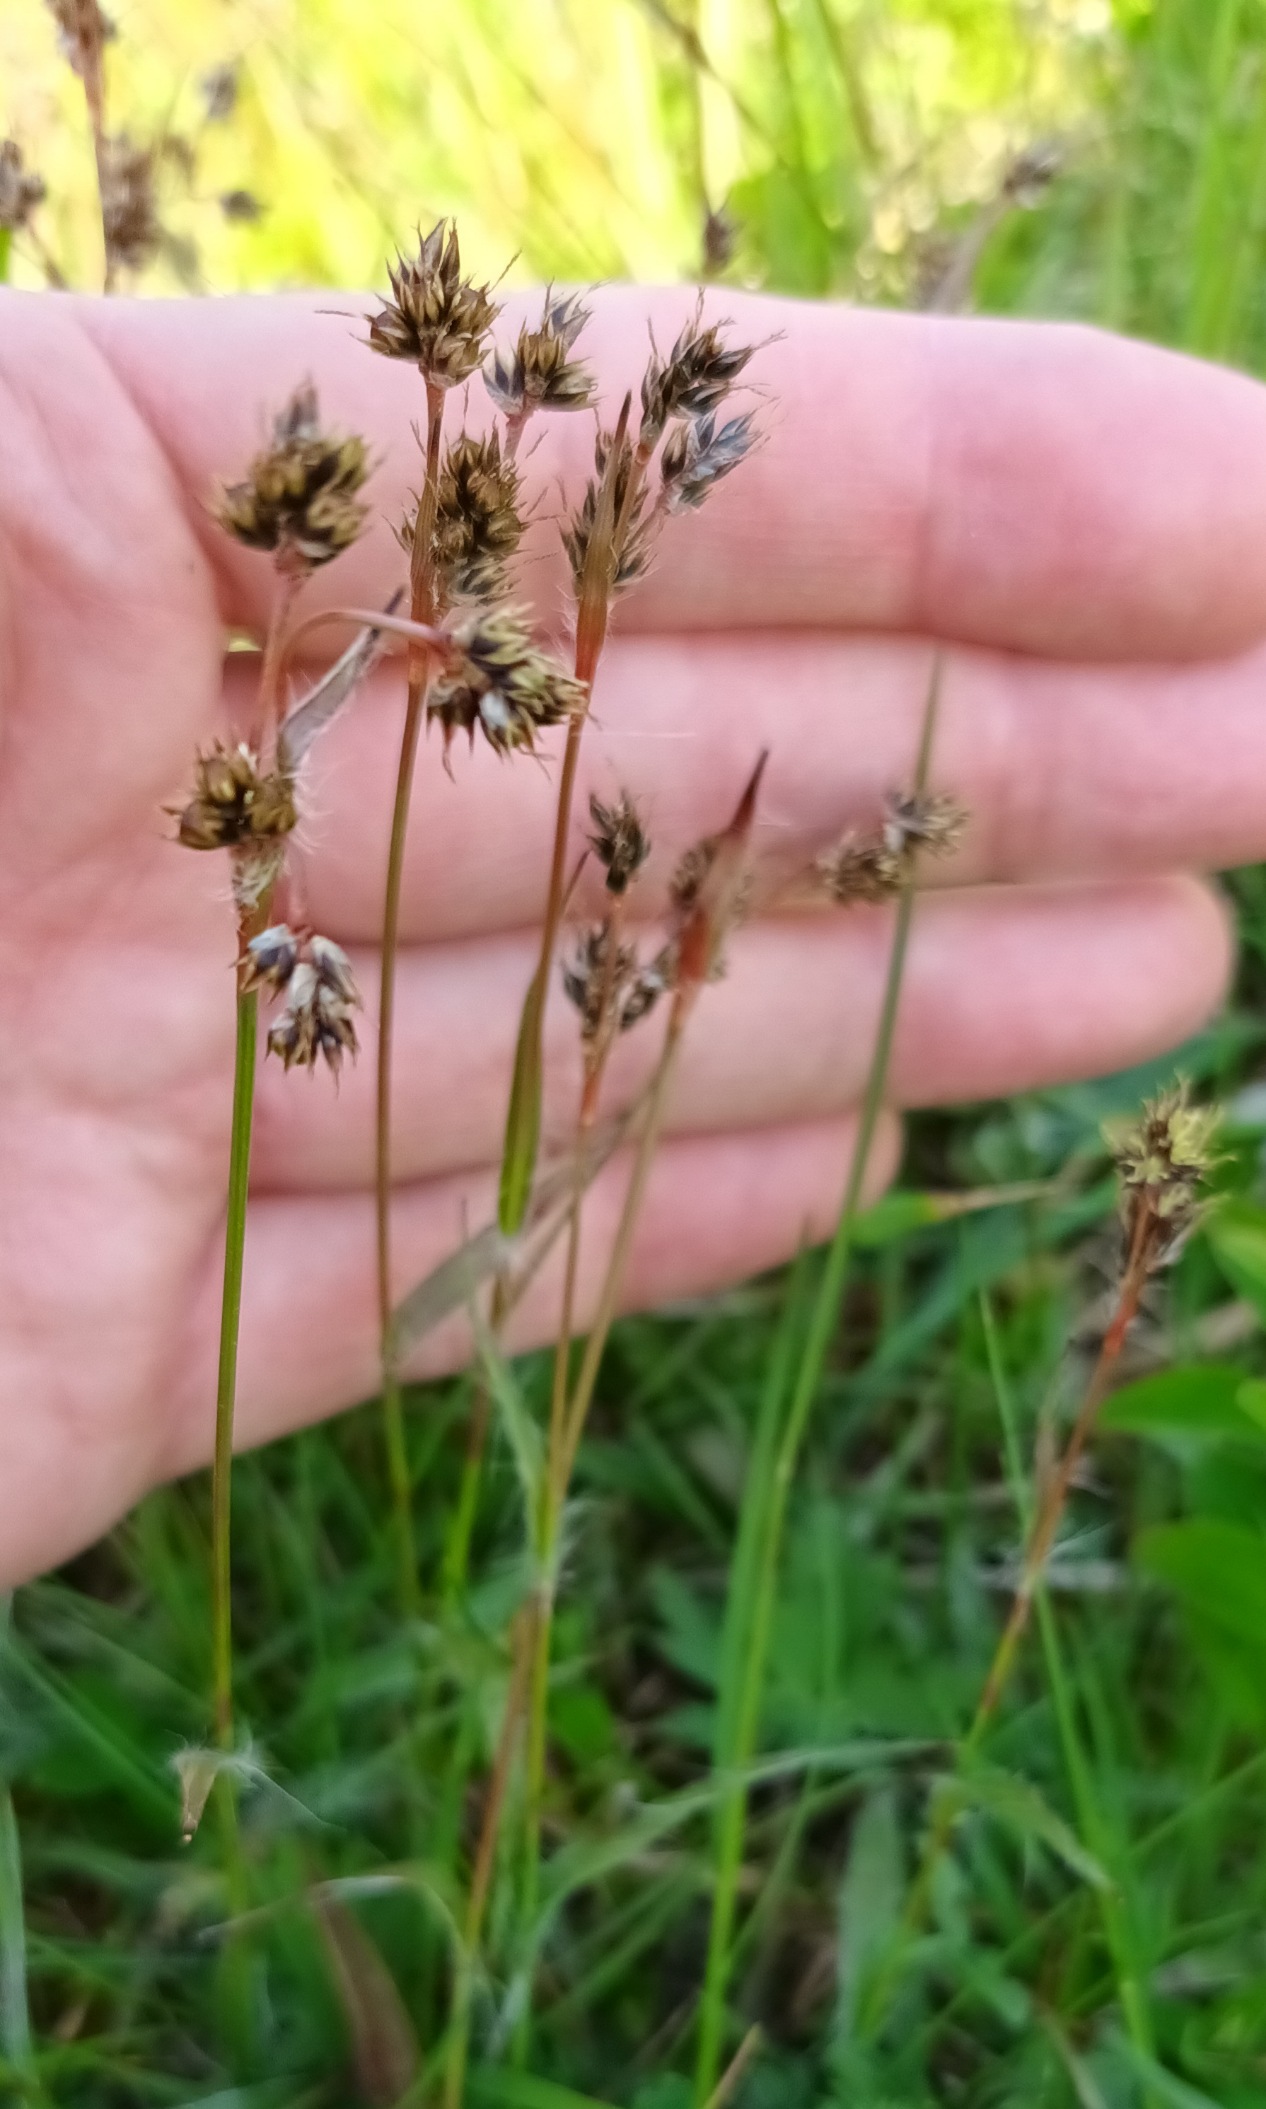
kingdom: Plantae
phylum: Tracheophyta
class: Liliopsida
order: Poales
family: Juncaceae
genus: Luzula
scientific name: Luzula campestris
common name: Mark-frytle
